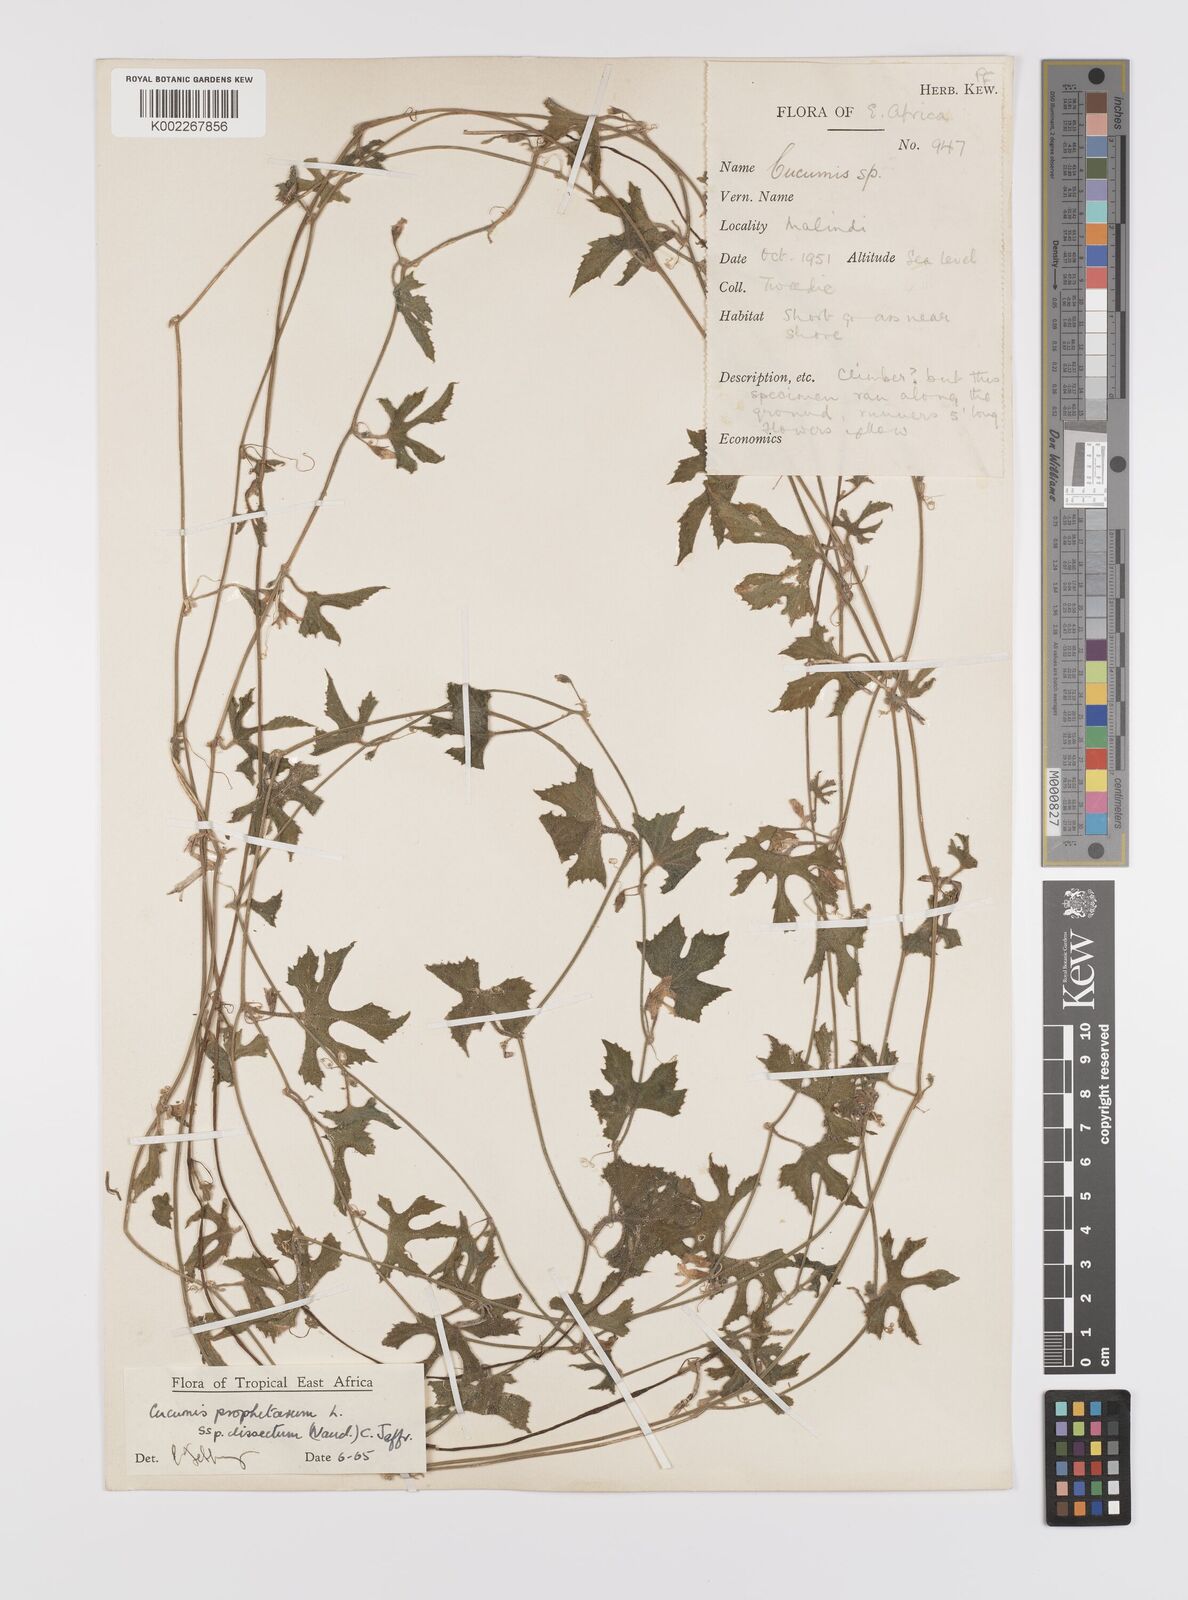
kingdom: Plantae
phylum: Tracheophyta
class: Magnoliopsida
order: Cucurbitales
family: Cucurbitaceae
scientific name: Cucurbitaceae
